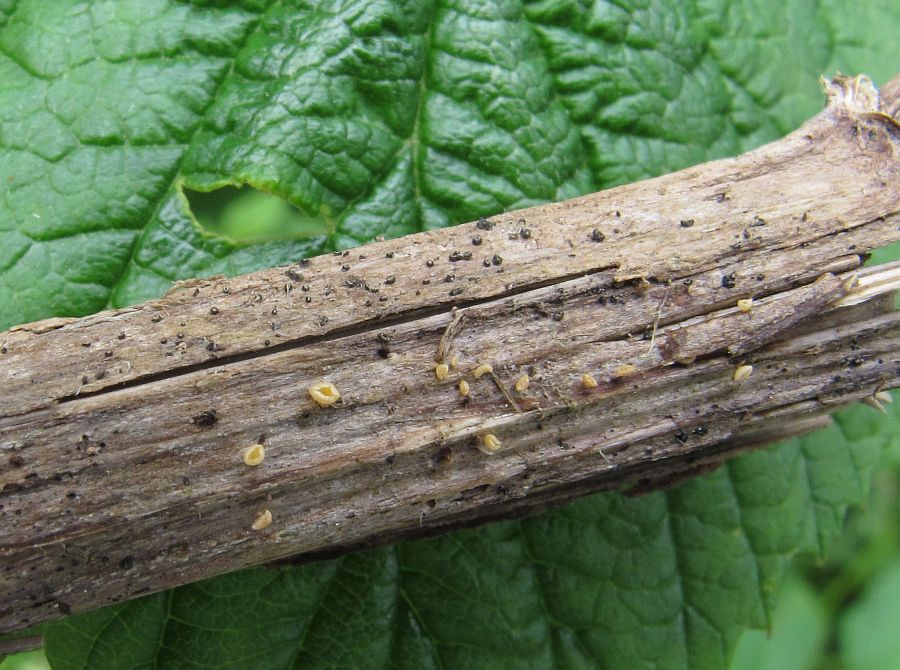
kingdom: Fungi
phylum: Ascomycota
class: Leotiomycetes
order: Helotiales
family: Helotiaceae
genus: Cyathicula
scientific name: Cyathicula cyathoidea
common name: pokal-stilkskive
